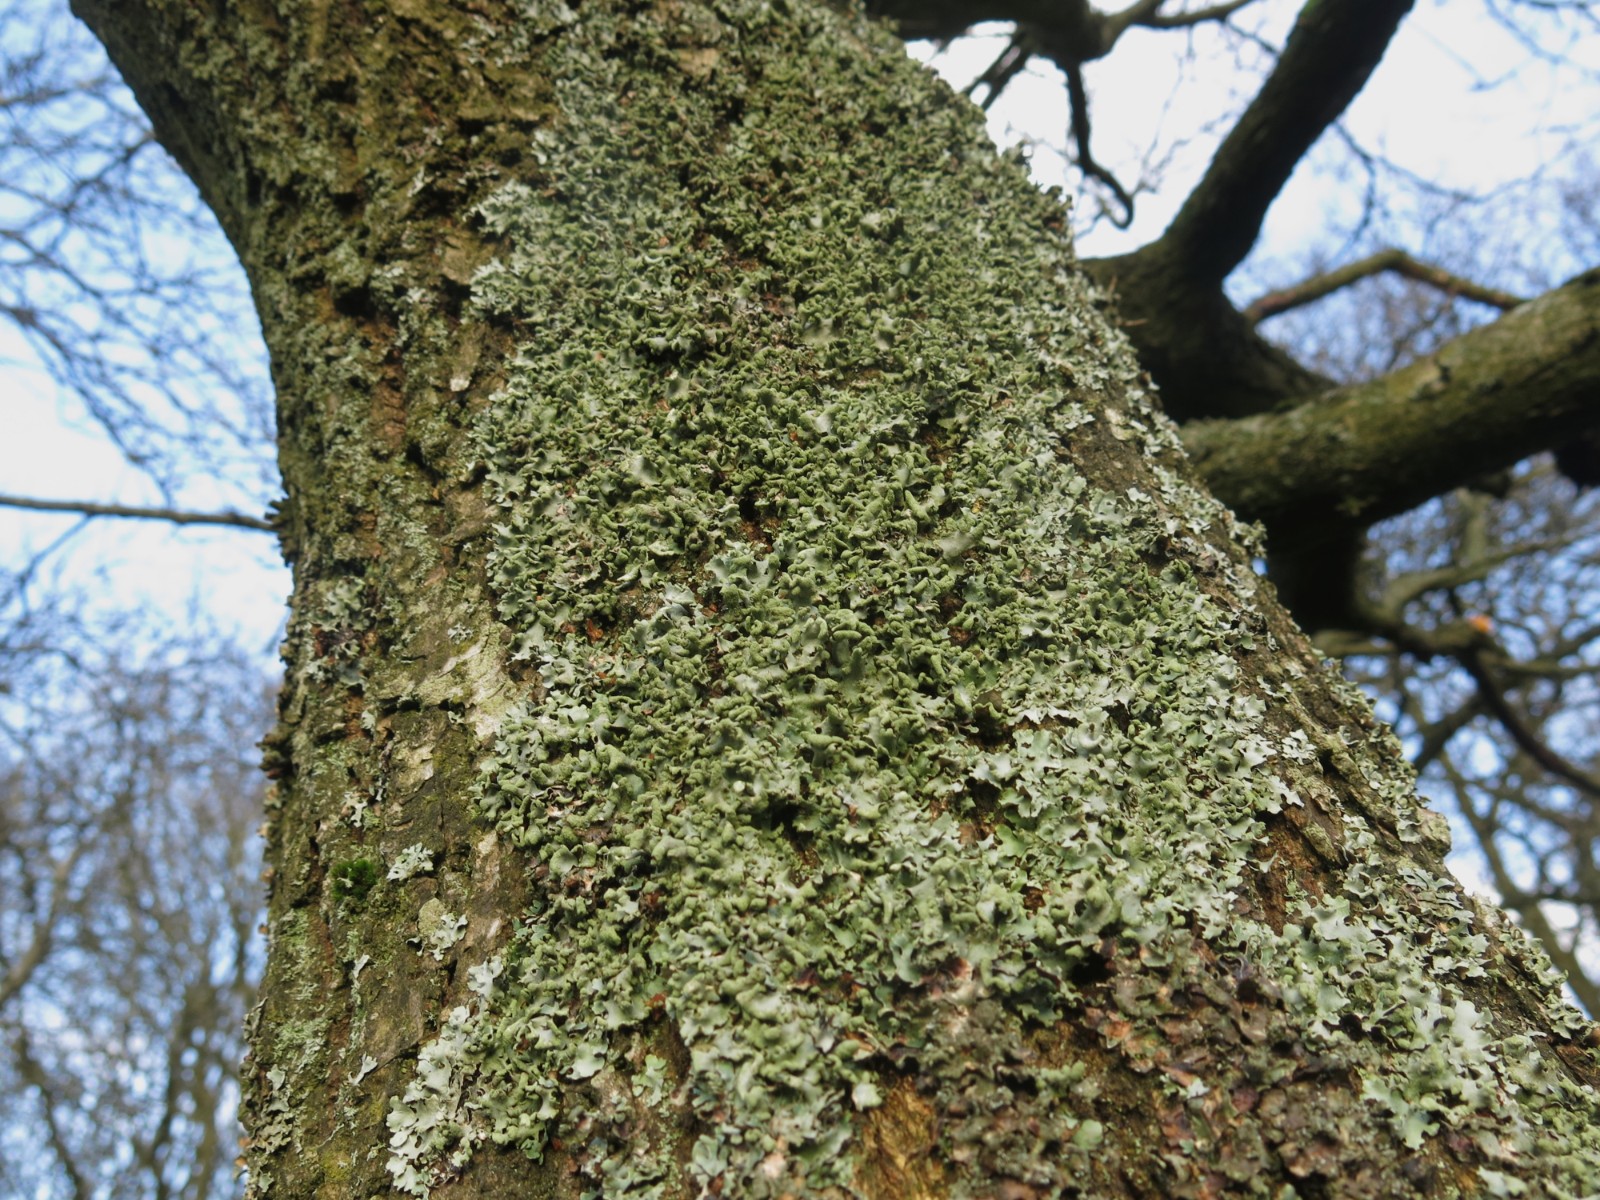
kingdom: Fungi
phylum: Ascomycota
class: Lecanoromycetes
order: Lecanorales
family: Parmeliaceae
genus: Hypotrachyna
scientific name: Hypotrachyna revoluta
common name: bleggrå skållav
